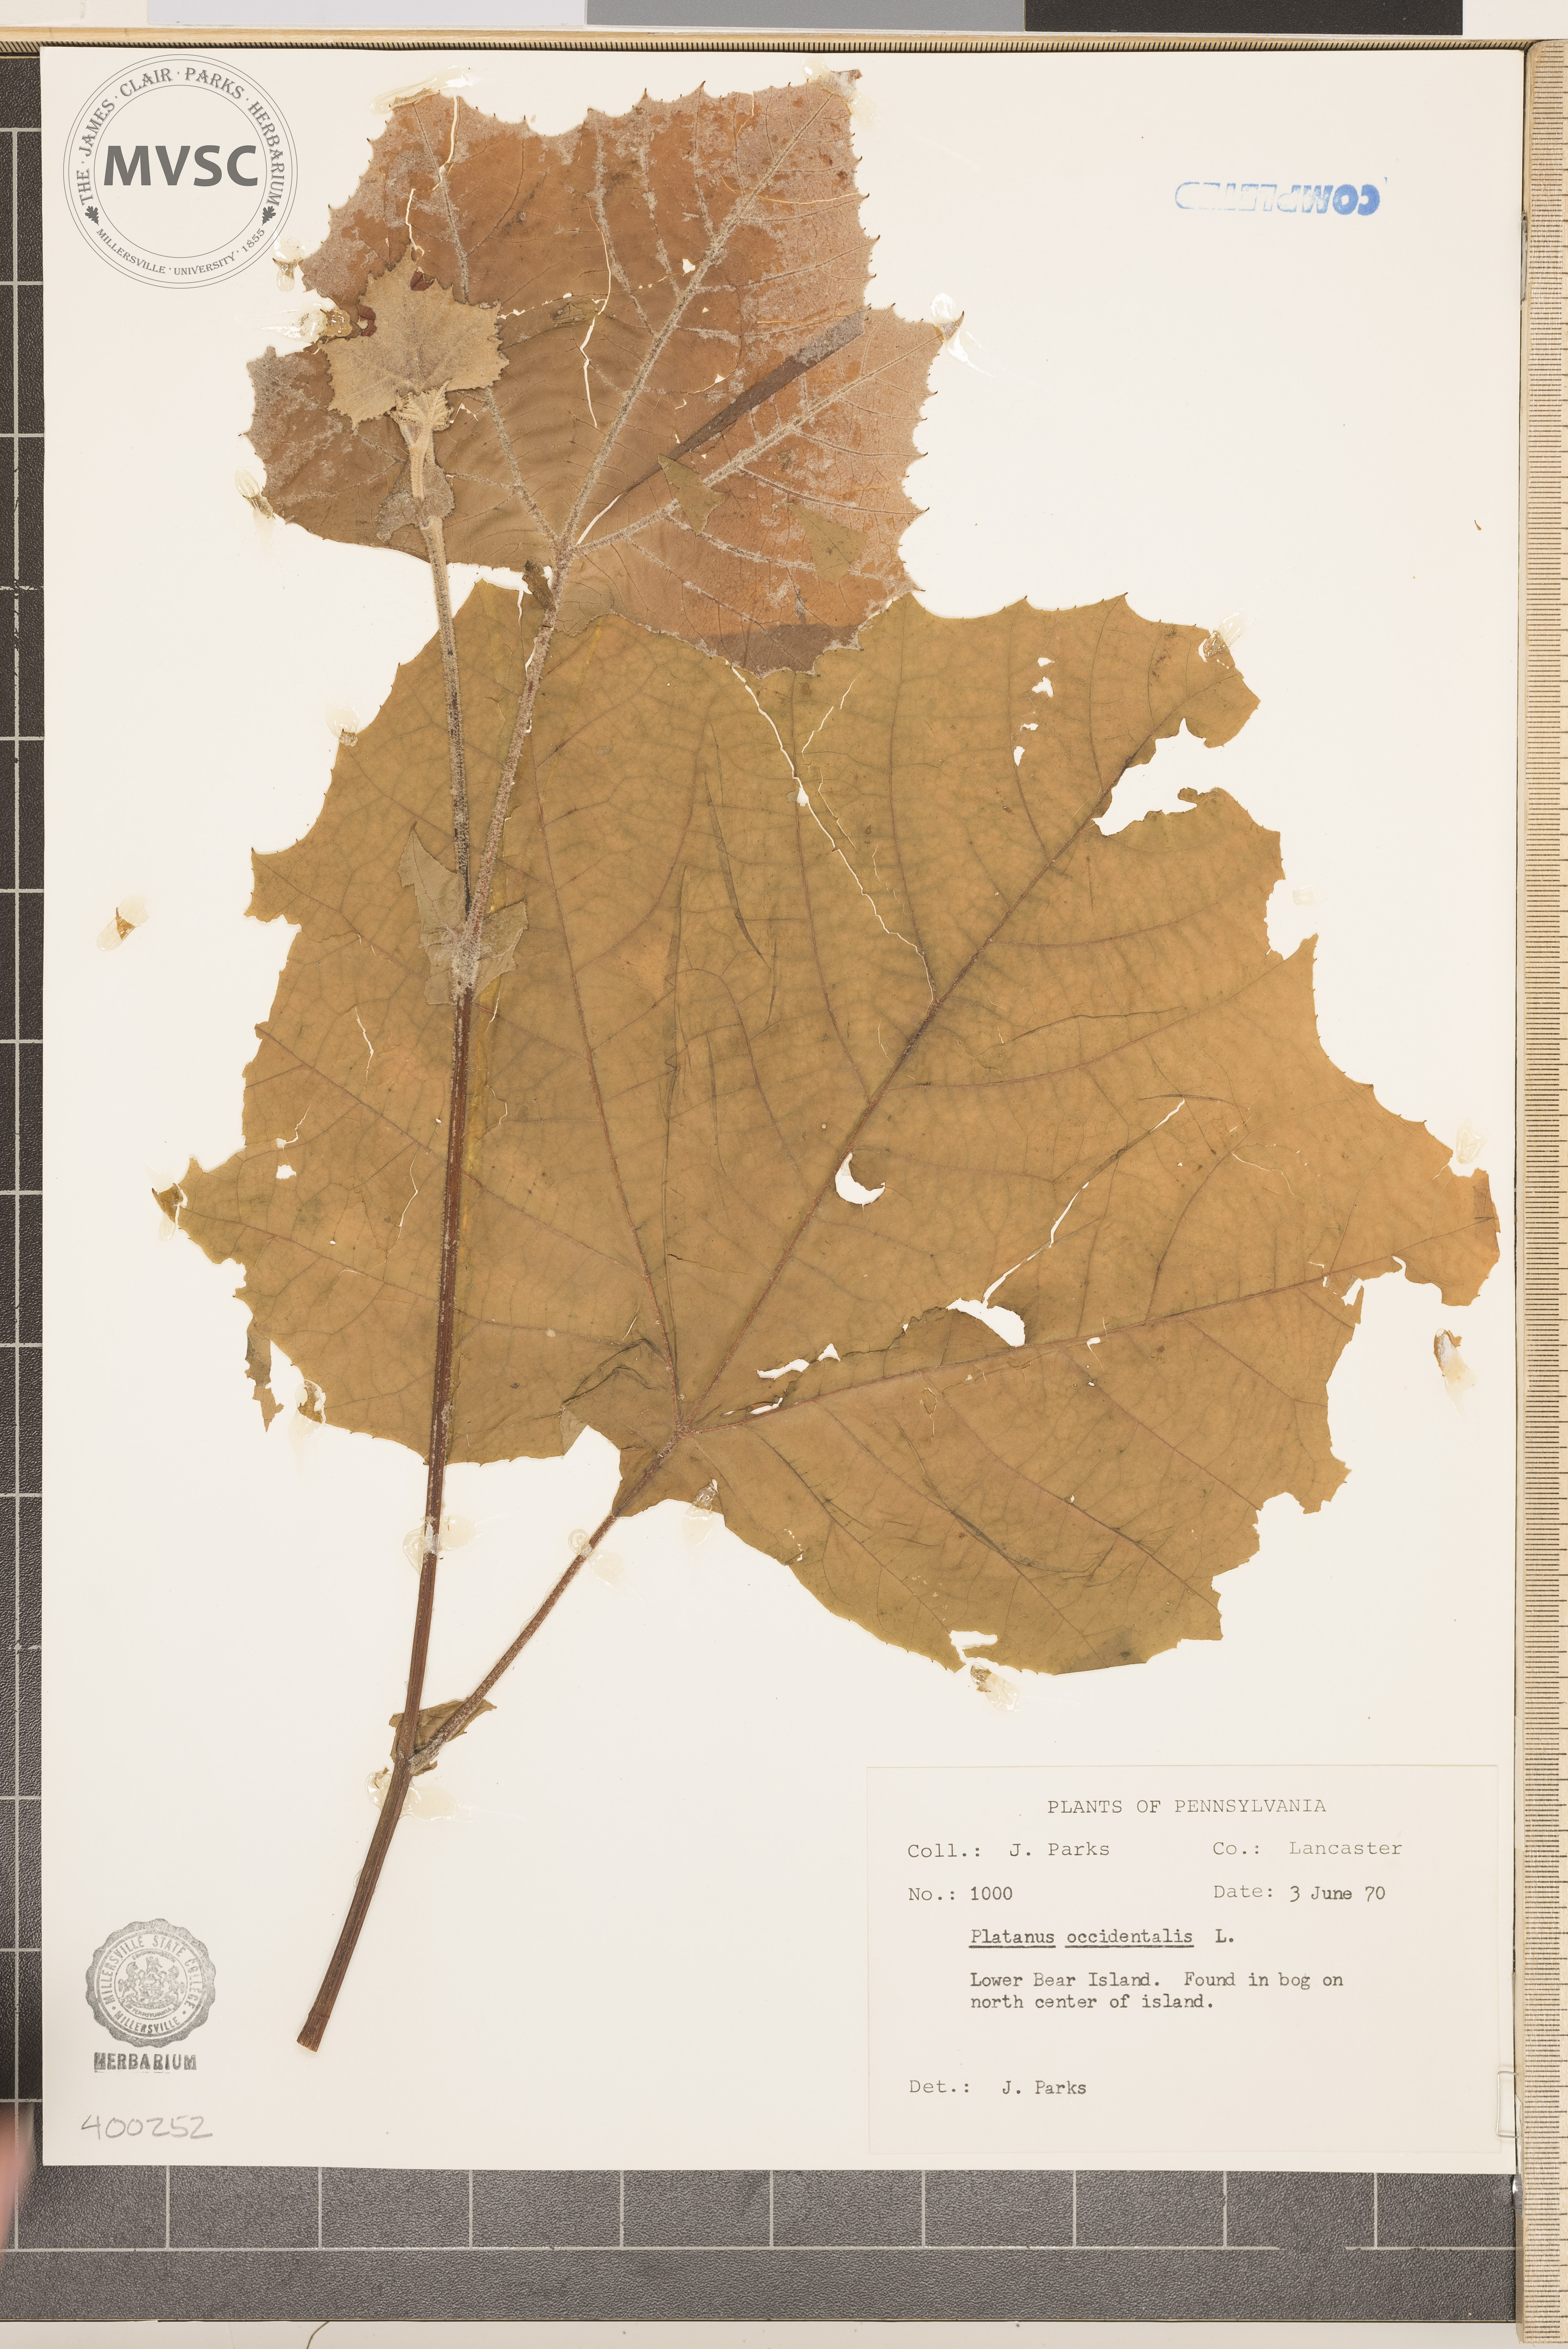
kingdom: Plantae
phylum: Tracheophyta
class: Magnoliopsida
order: Proteales
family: Platanaceae
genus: Platanus
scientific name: Platanus occidentalis
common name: sycamore
